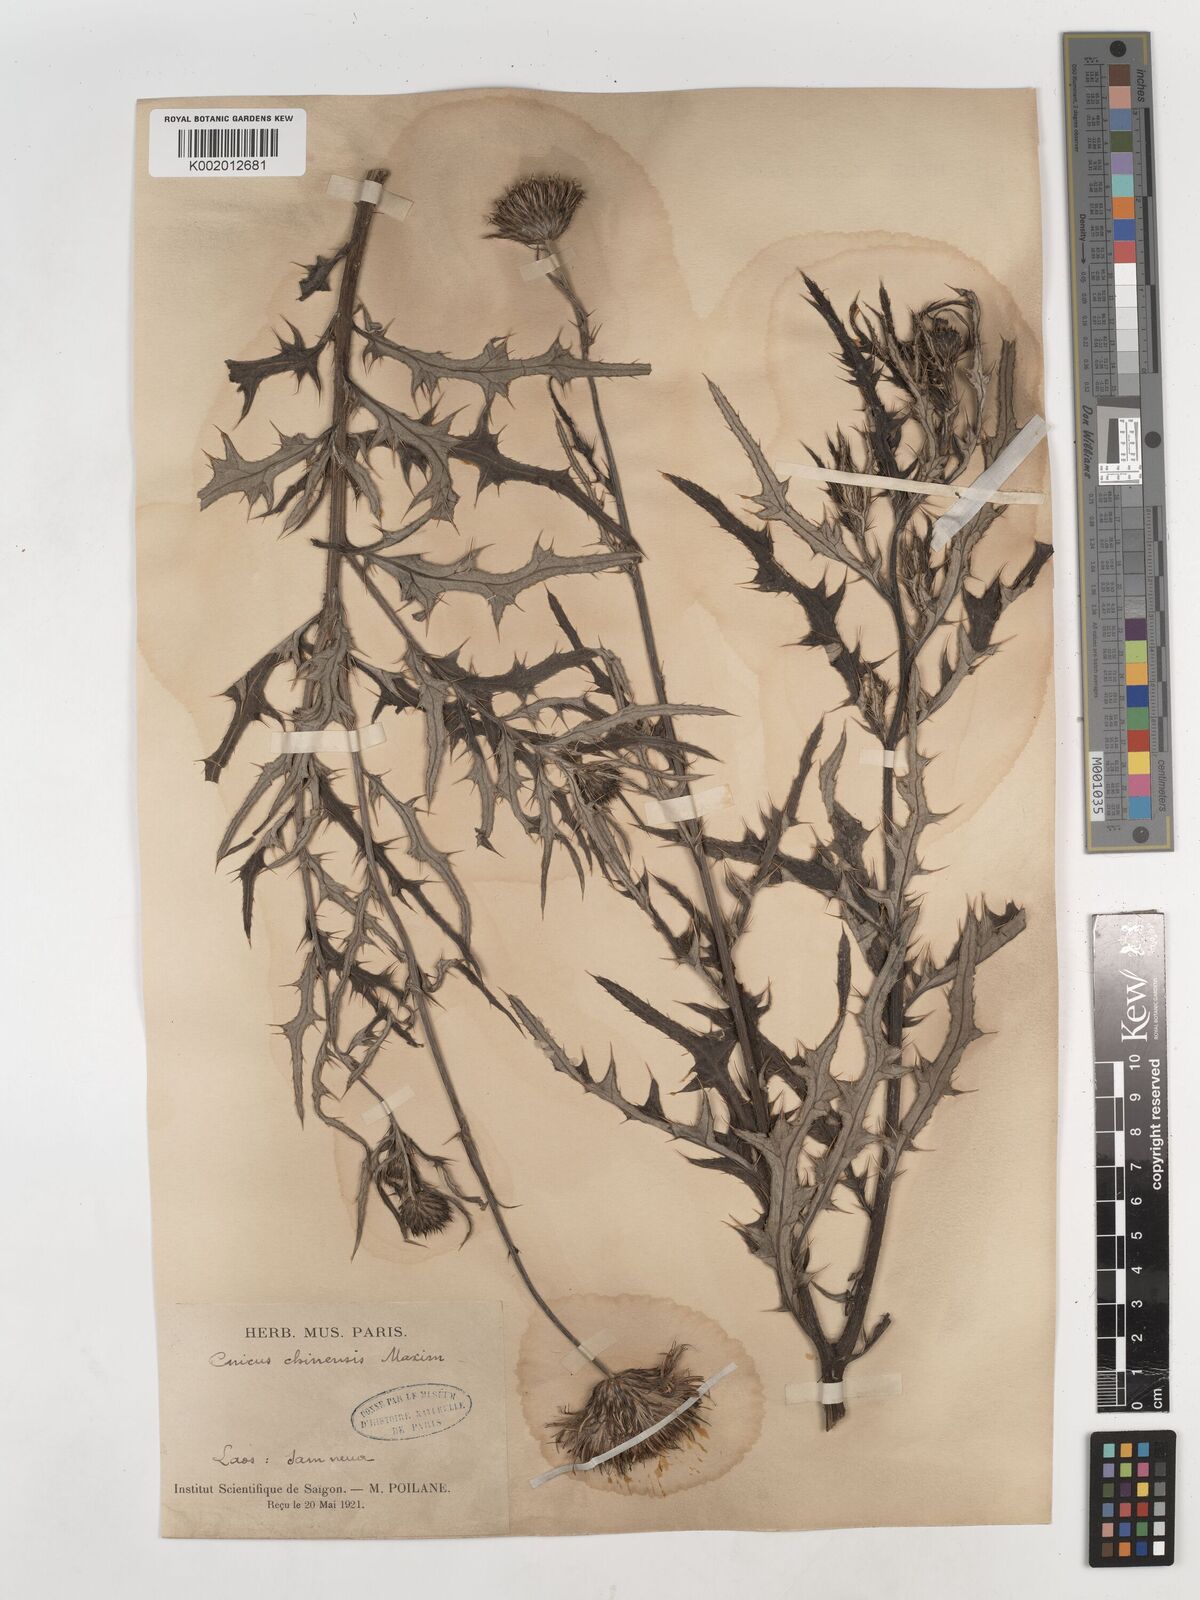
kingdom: Plantae
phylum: Tracheophyta
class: Magnoliopsida
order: Asterales
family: Asteraceae
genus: Cirsium
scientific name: Cirsium chinense
